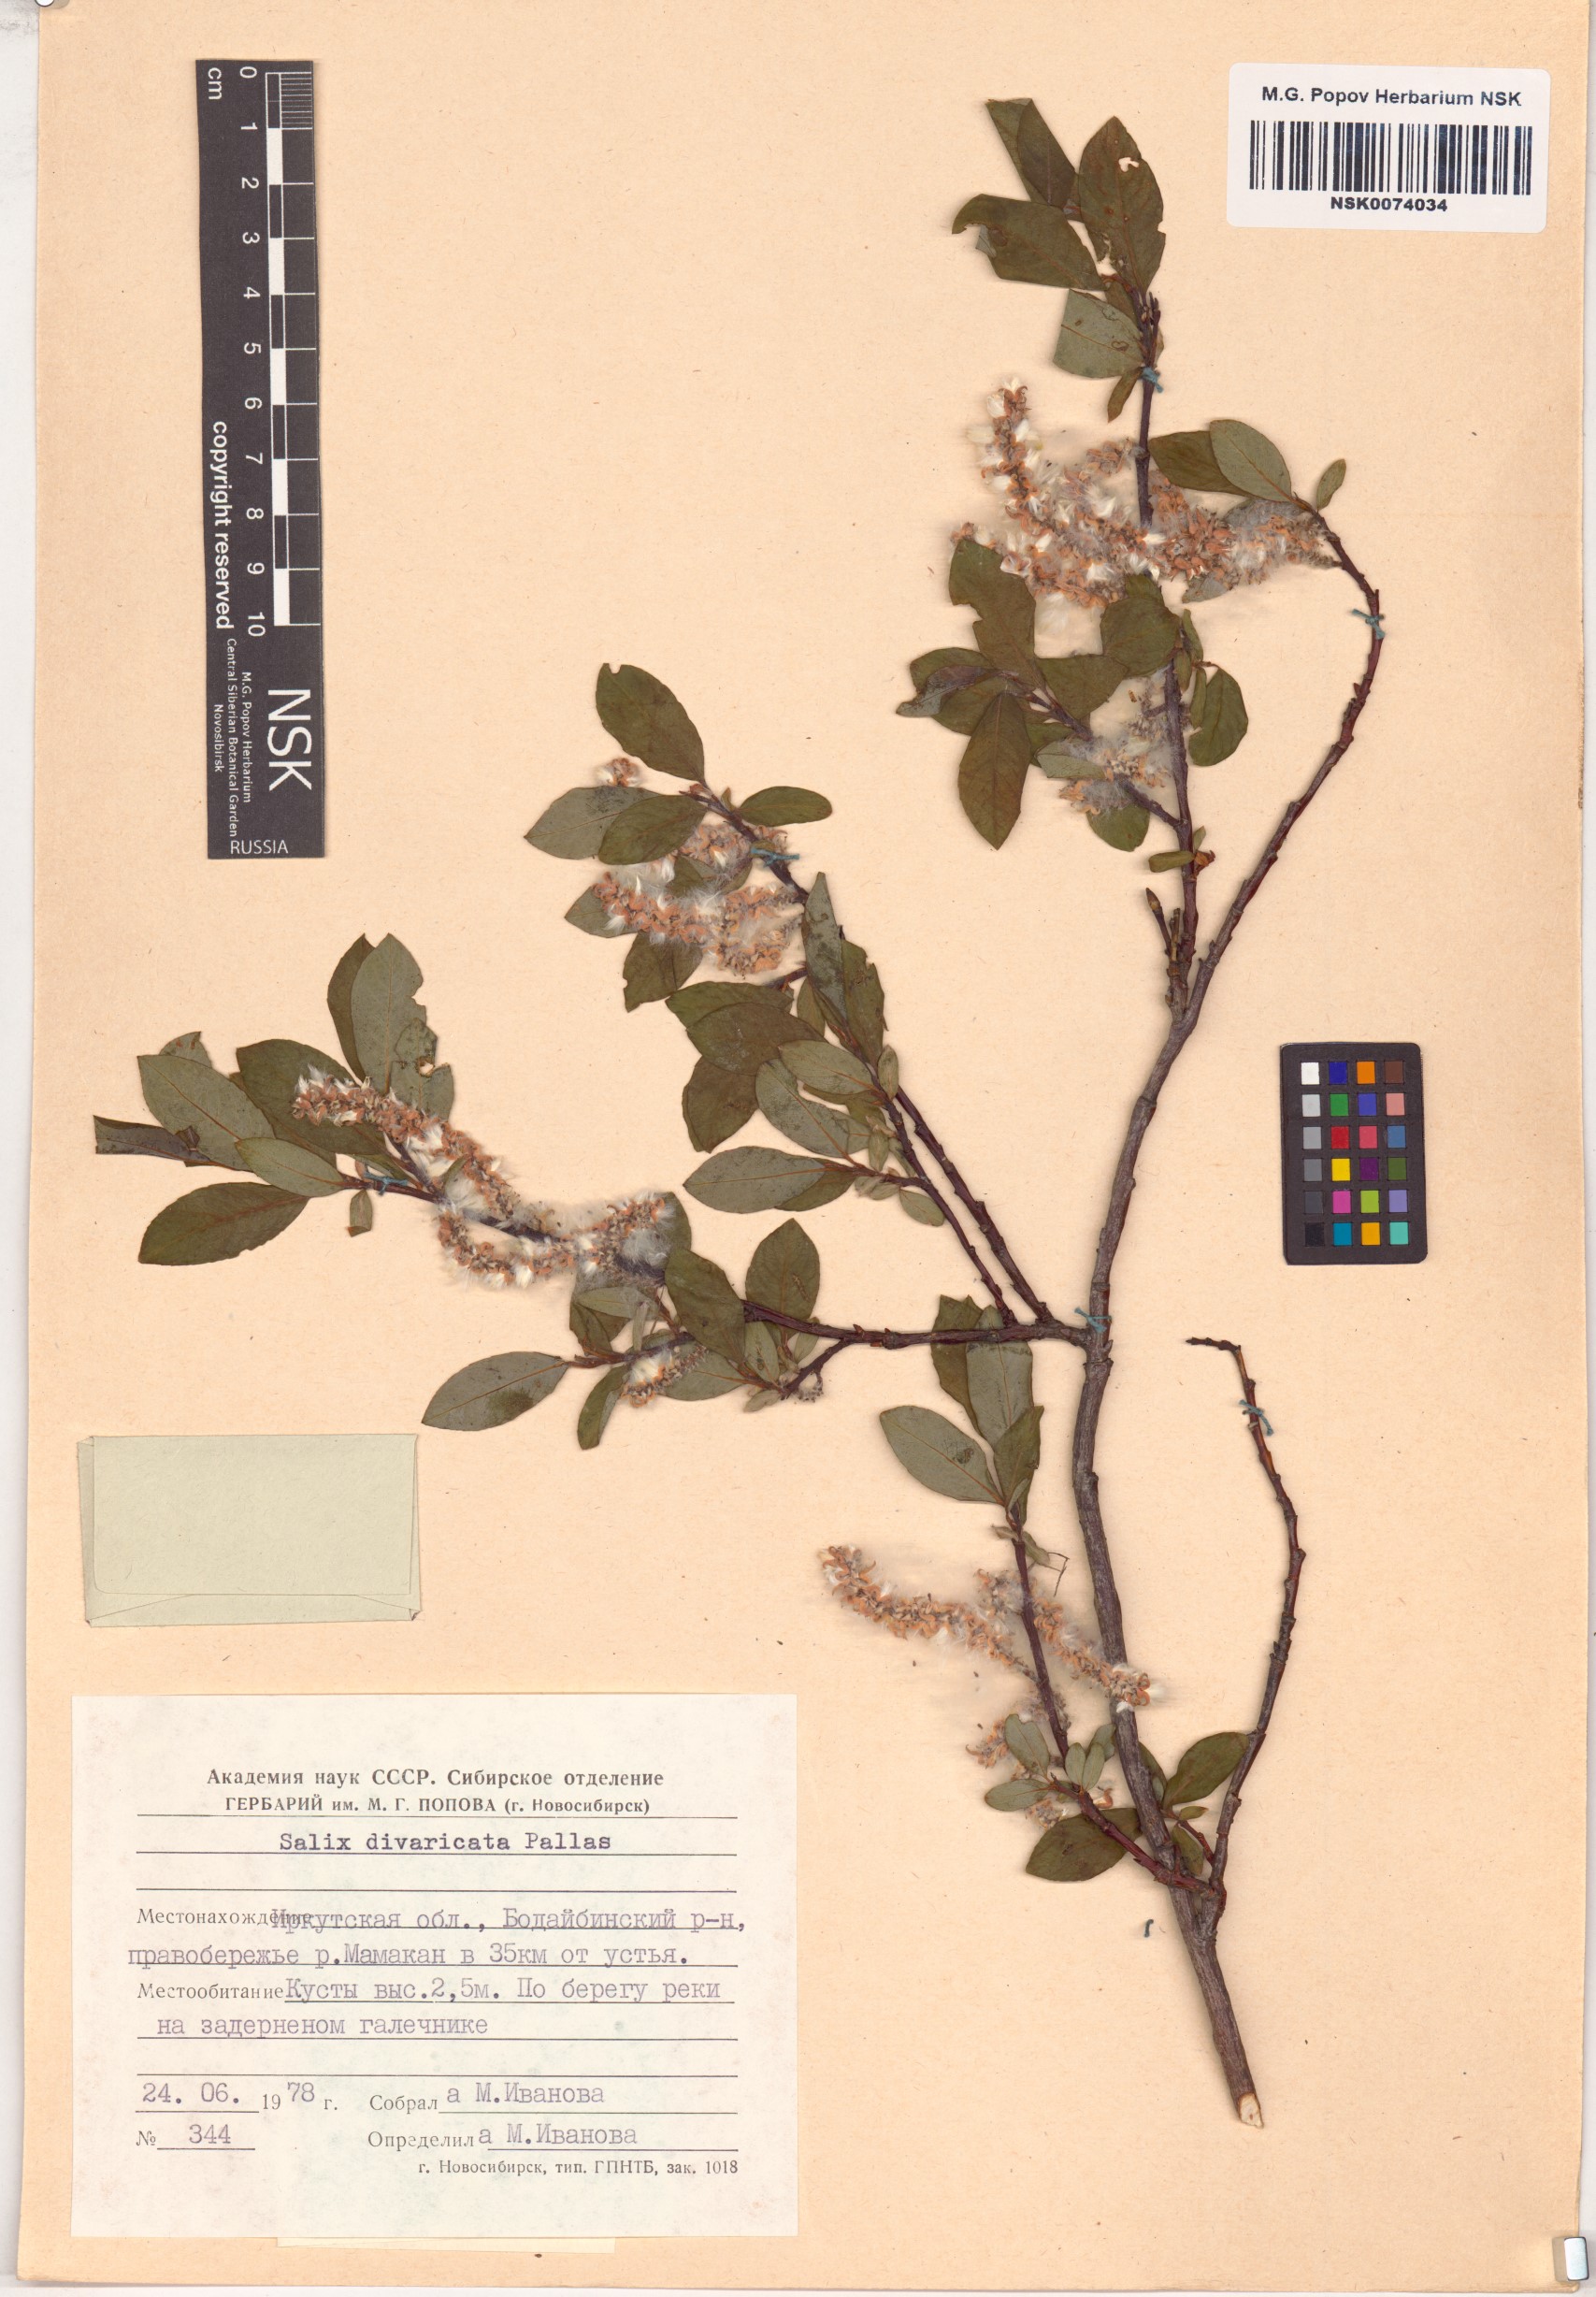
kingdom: Plantae
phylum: Tracheophyta
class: Magnoliopsida
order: Malpighiales
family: Salicaceae
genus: Salix
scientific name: Salix divaricata
